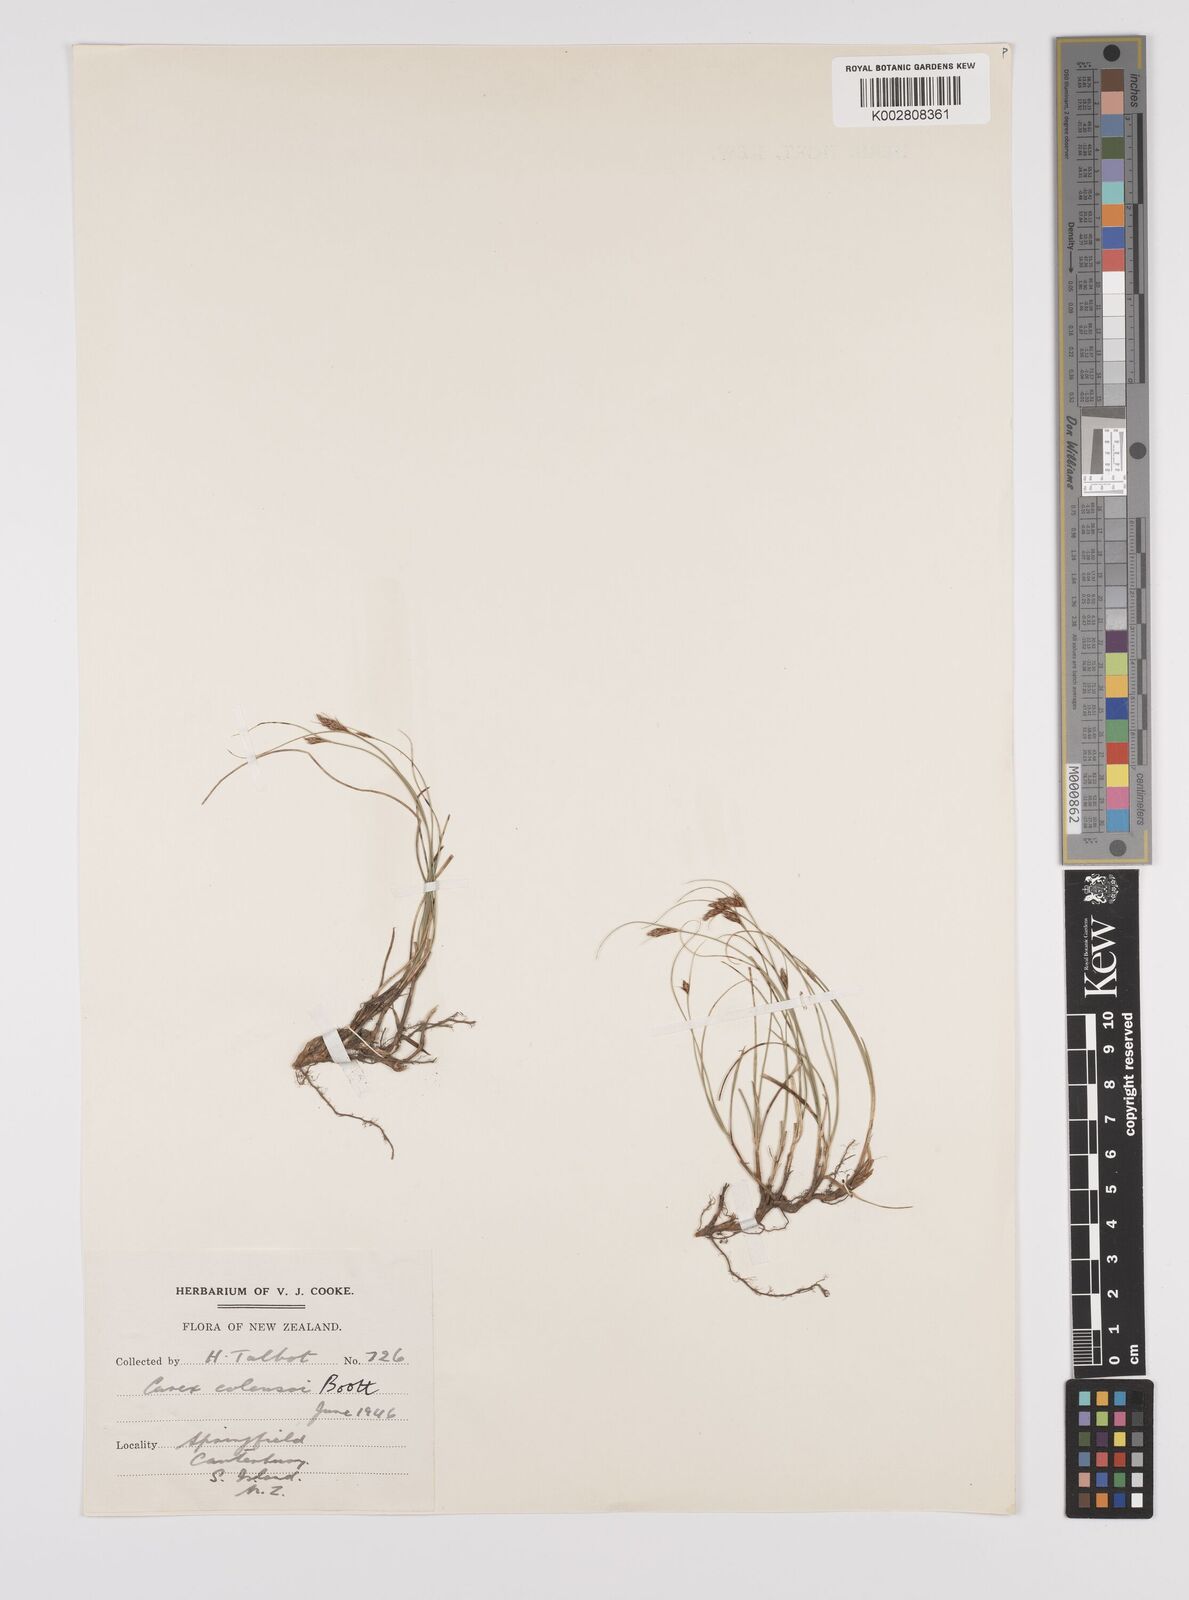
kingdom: Plantae
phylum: Tracheophyta
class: Liliopsida
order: Poales
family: Cyperaceae
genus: Carex
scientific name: Carex colensoi
